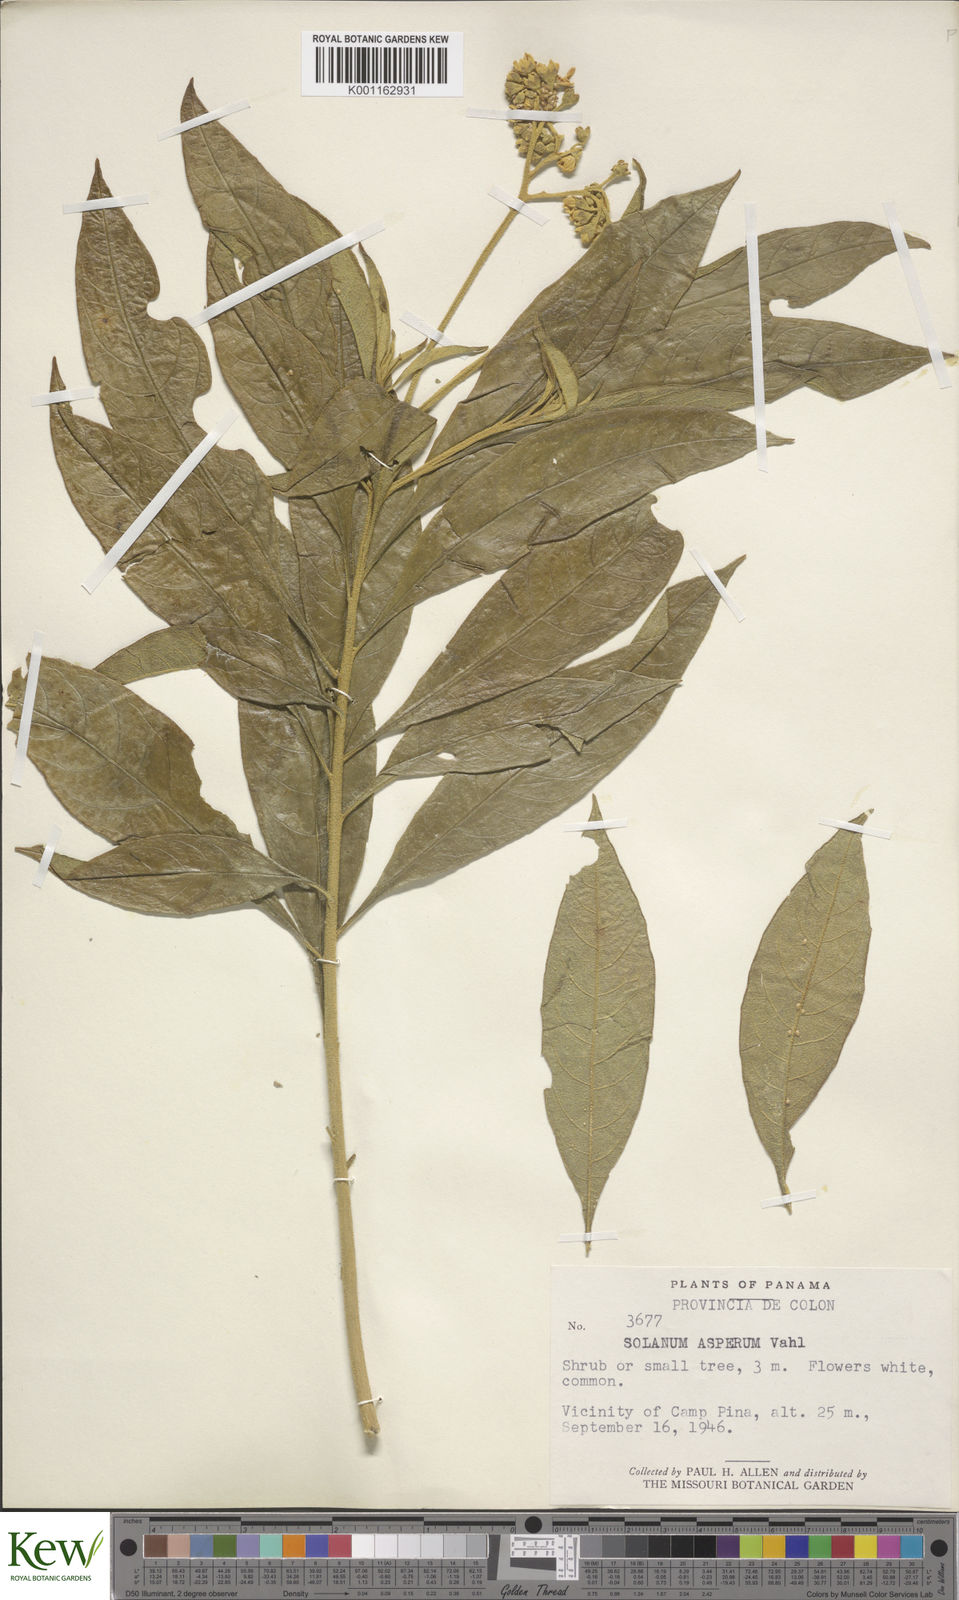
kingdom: Plantae
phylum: Tracheophyta
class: Magnoliopsida
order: Solanales
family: Solanaceae
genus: Solanum
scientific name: Solanum asperum
